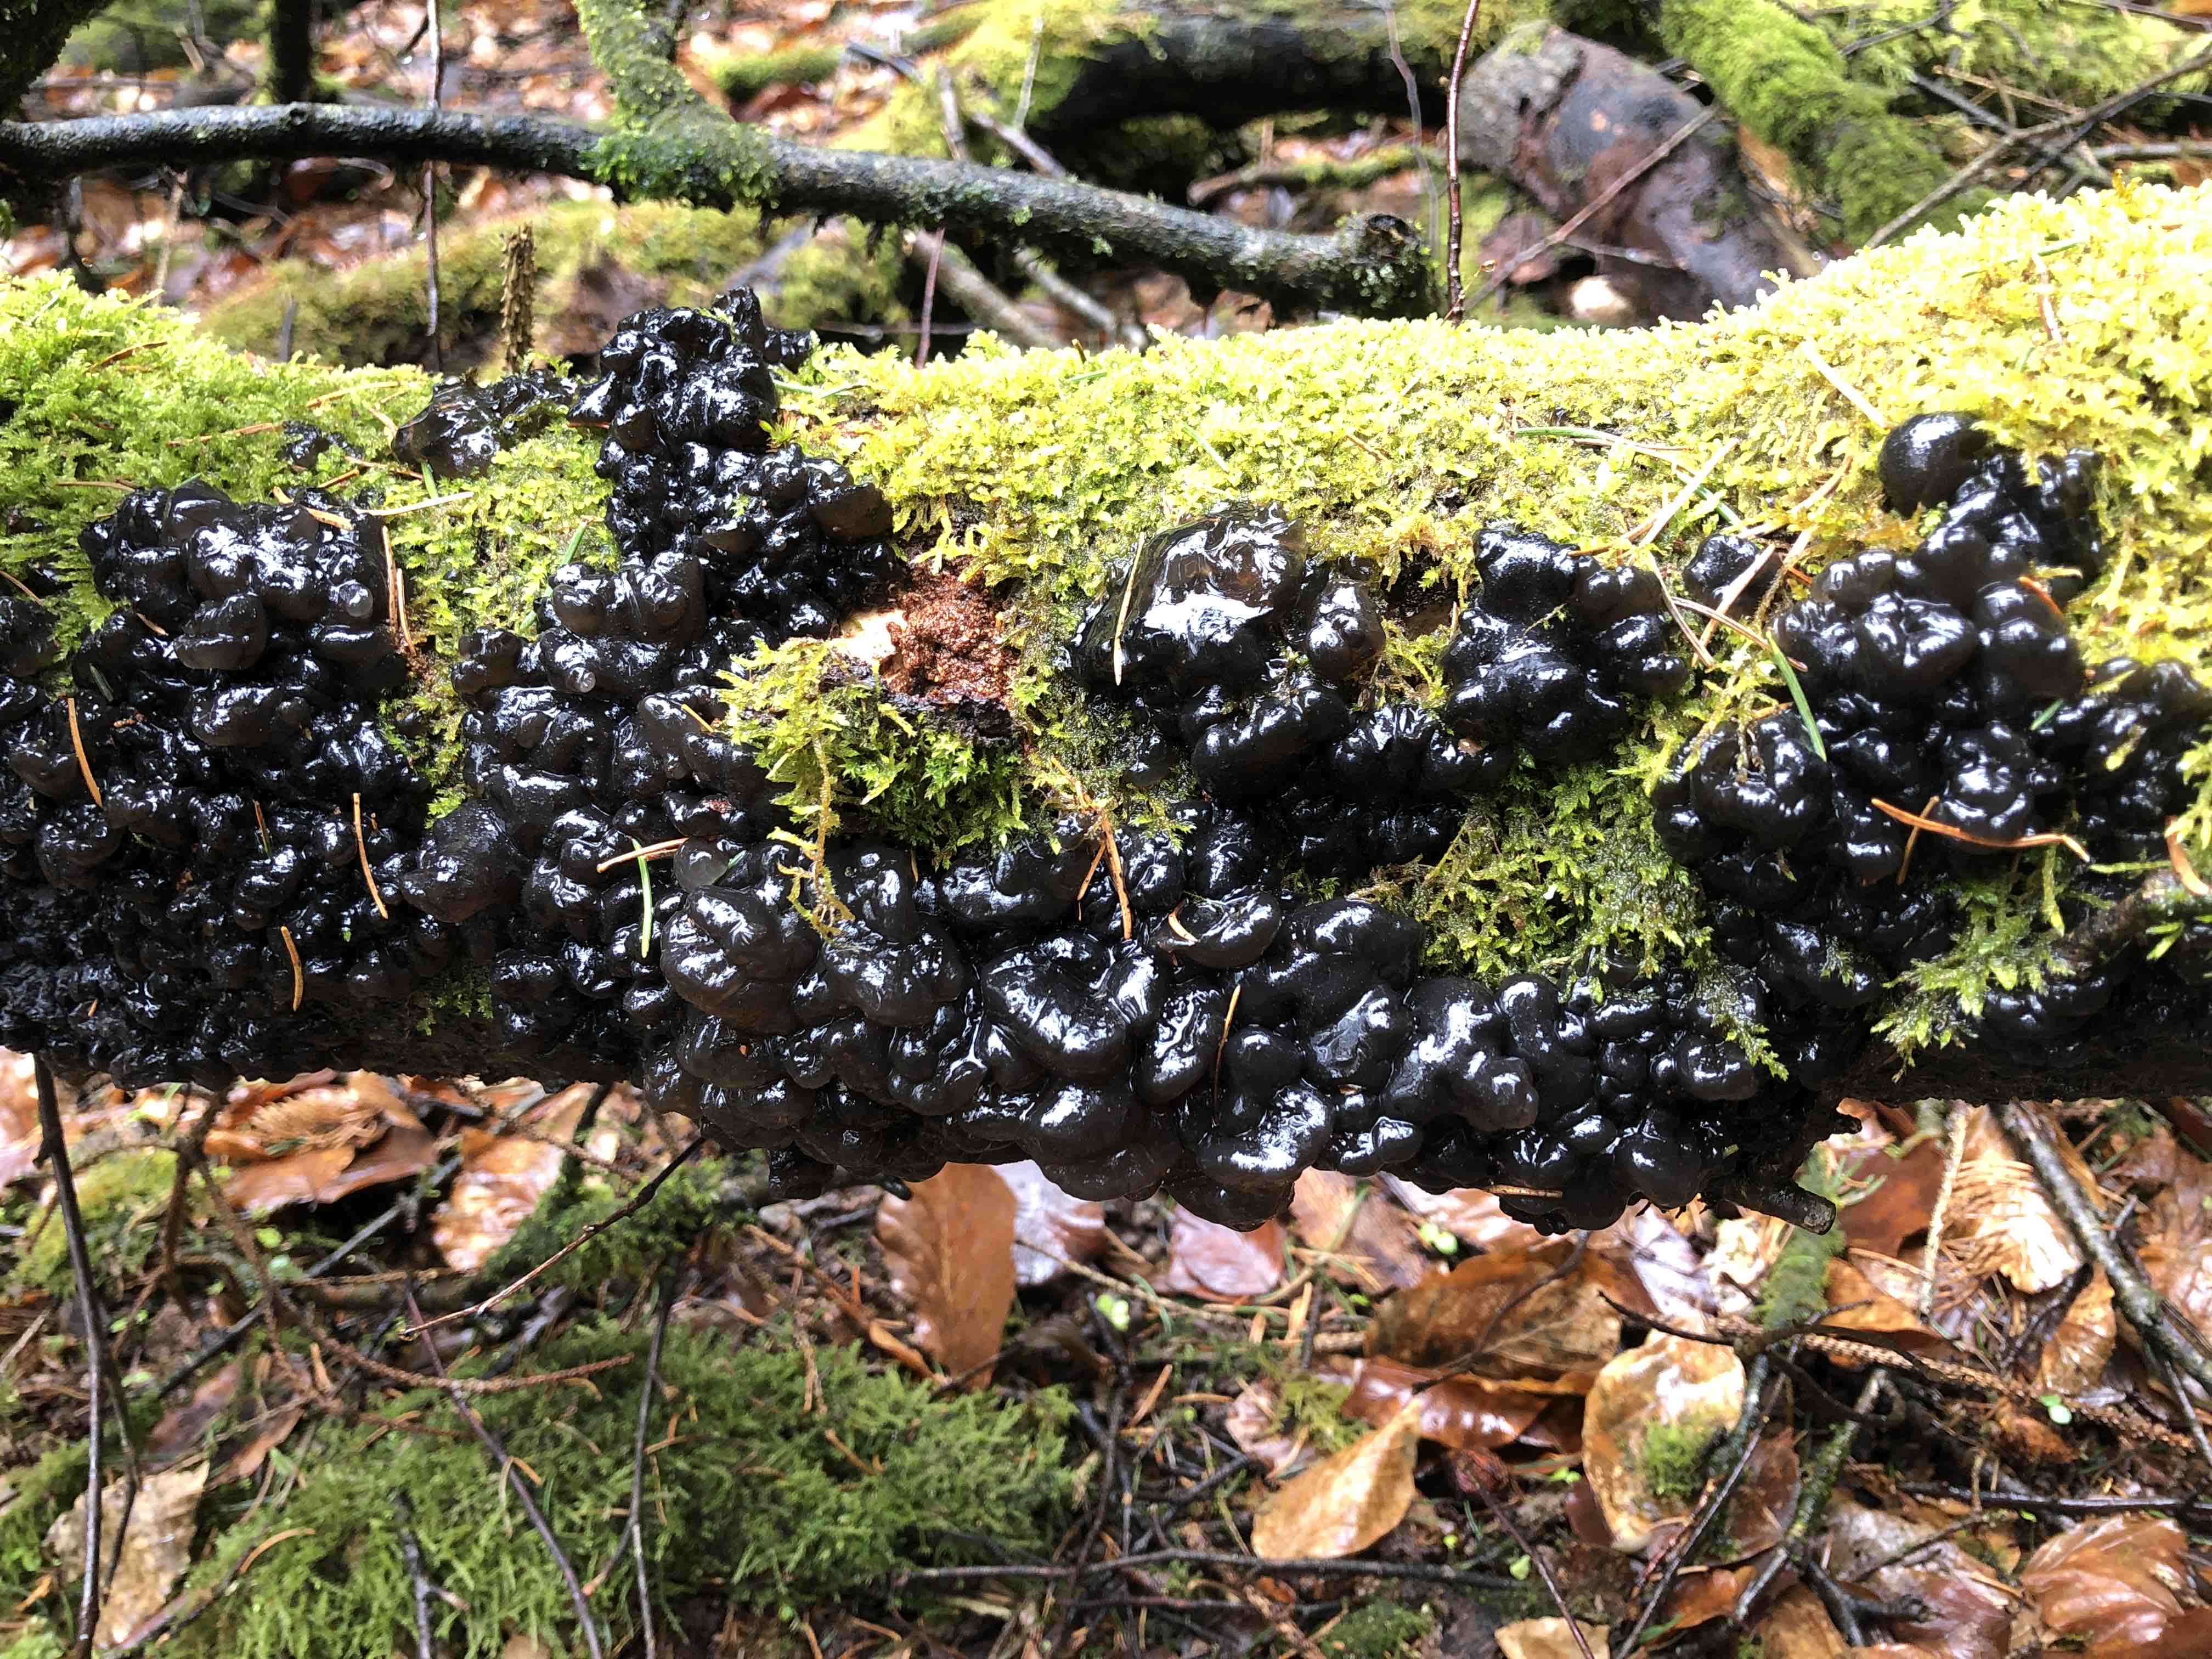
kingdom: Fungi
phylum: Basidiomycota
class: Agaricomycetes
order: Auriculariales
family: Auriculariaceae
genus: Exidia
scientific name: Exidia nigricans
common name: almindelig bævretop
